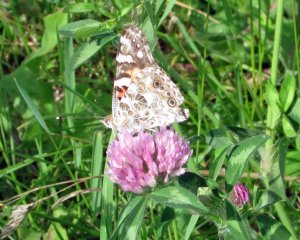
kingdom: Animalia
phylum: Arthropoda
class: Insecta
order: Lepidoptera
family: Nymphalidae
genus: Vanessa
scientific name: Vanessa cardui
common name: Painted Lady
